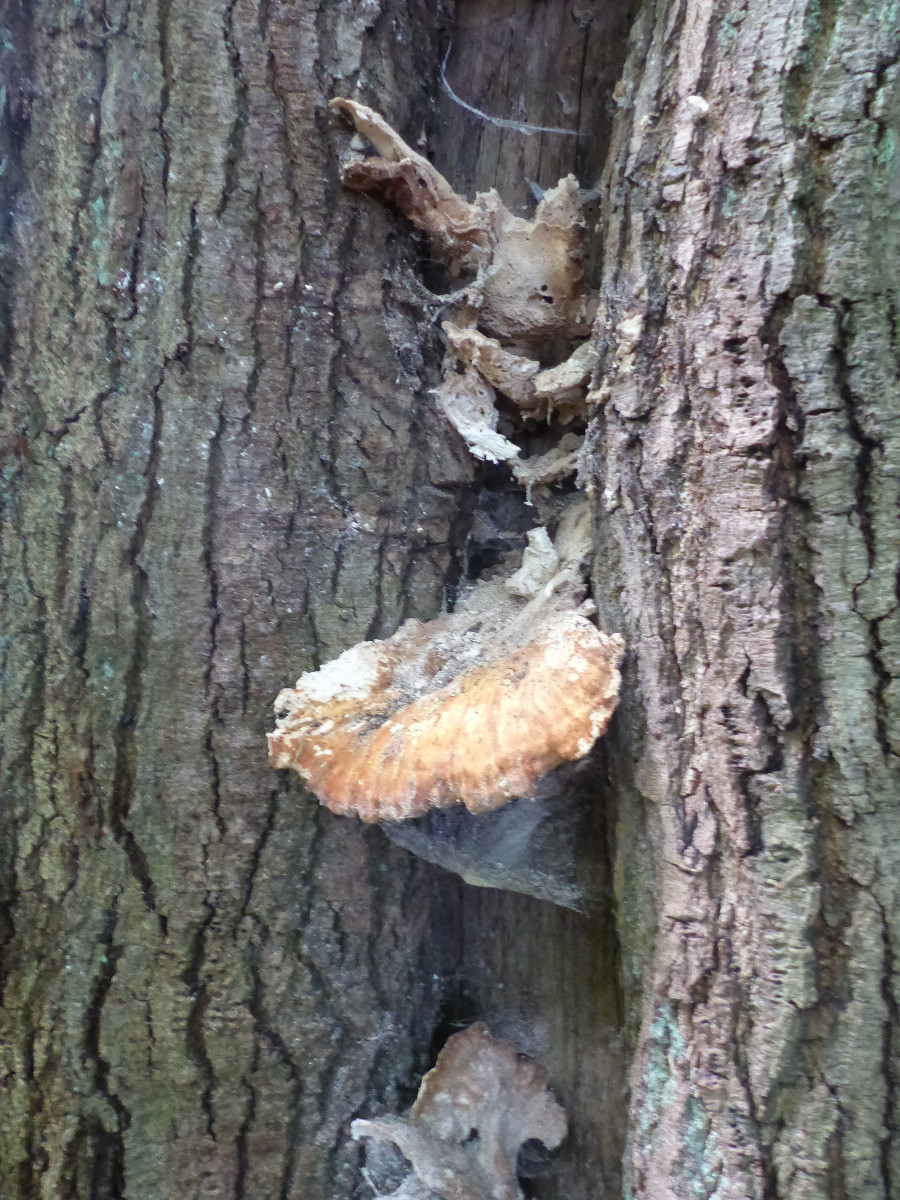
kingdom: Fungi
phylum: Basidiomycota
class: Agaricomycetes
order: Polyporales
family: Laetiporaceae
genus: Laetiporus
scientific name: Laetiporus sulphureus
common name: svovlporesvamp
